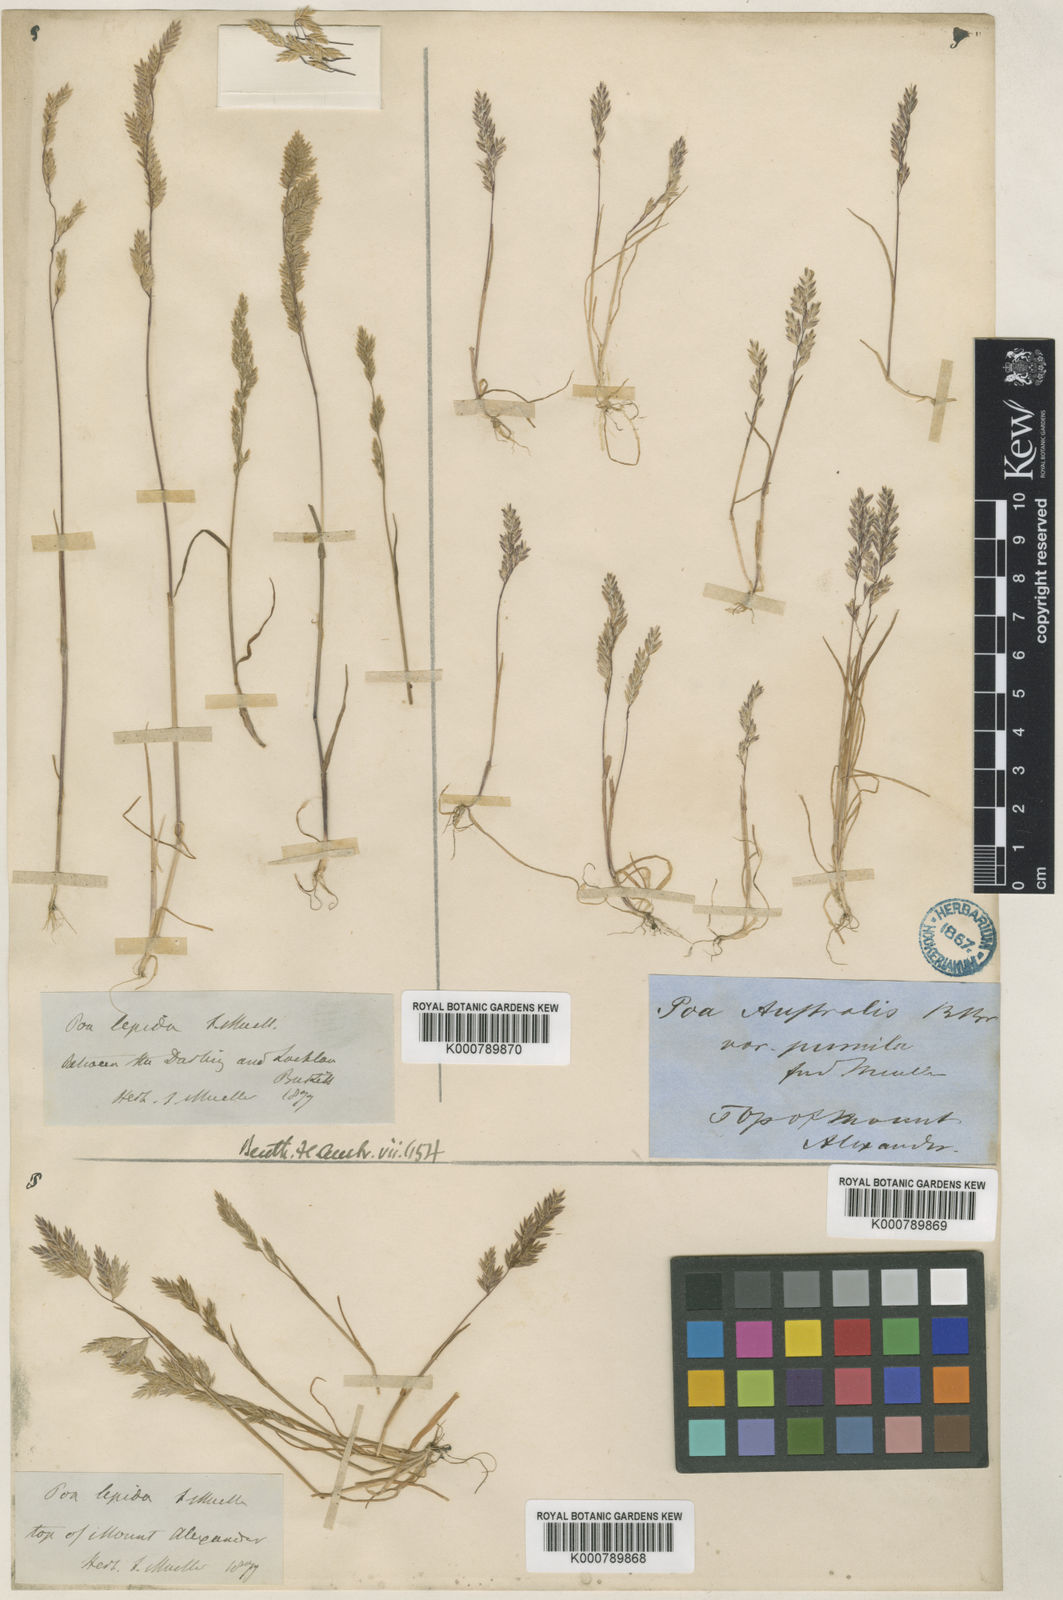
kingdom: Plantae
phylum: Tracheophyta
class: Liliopsida
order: Poales
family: Poaceae
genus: Poa
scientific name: Poa fax
